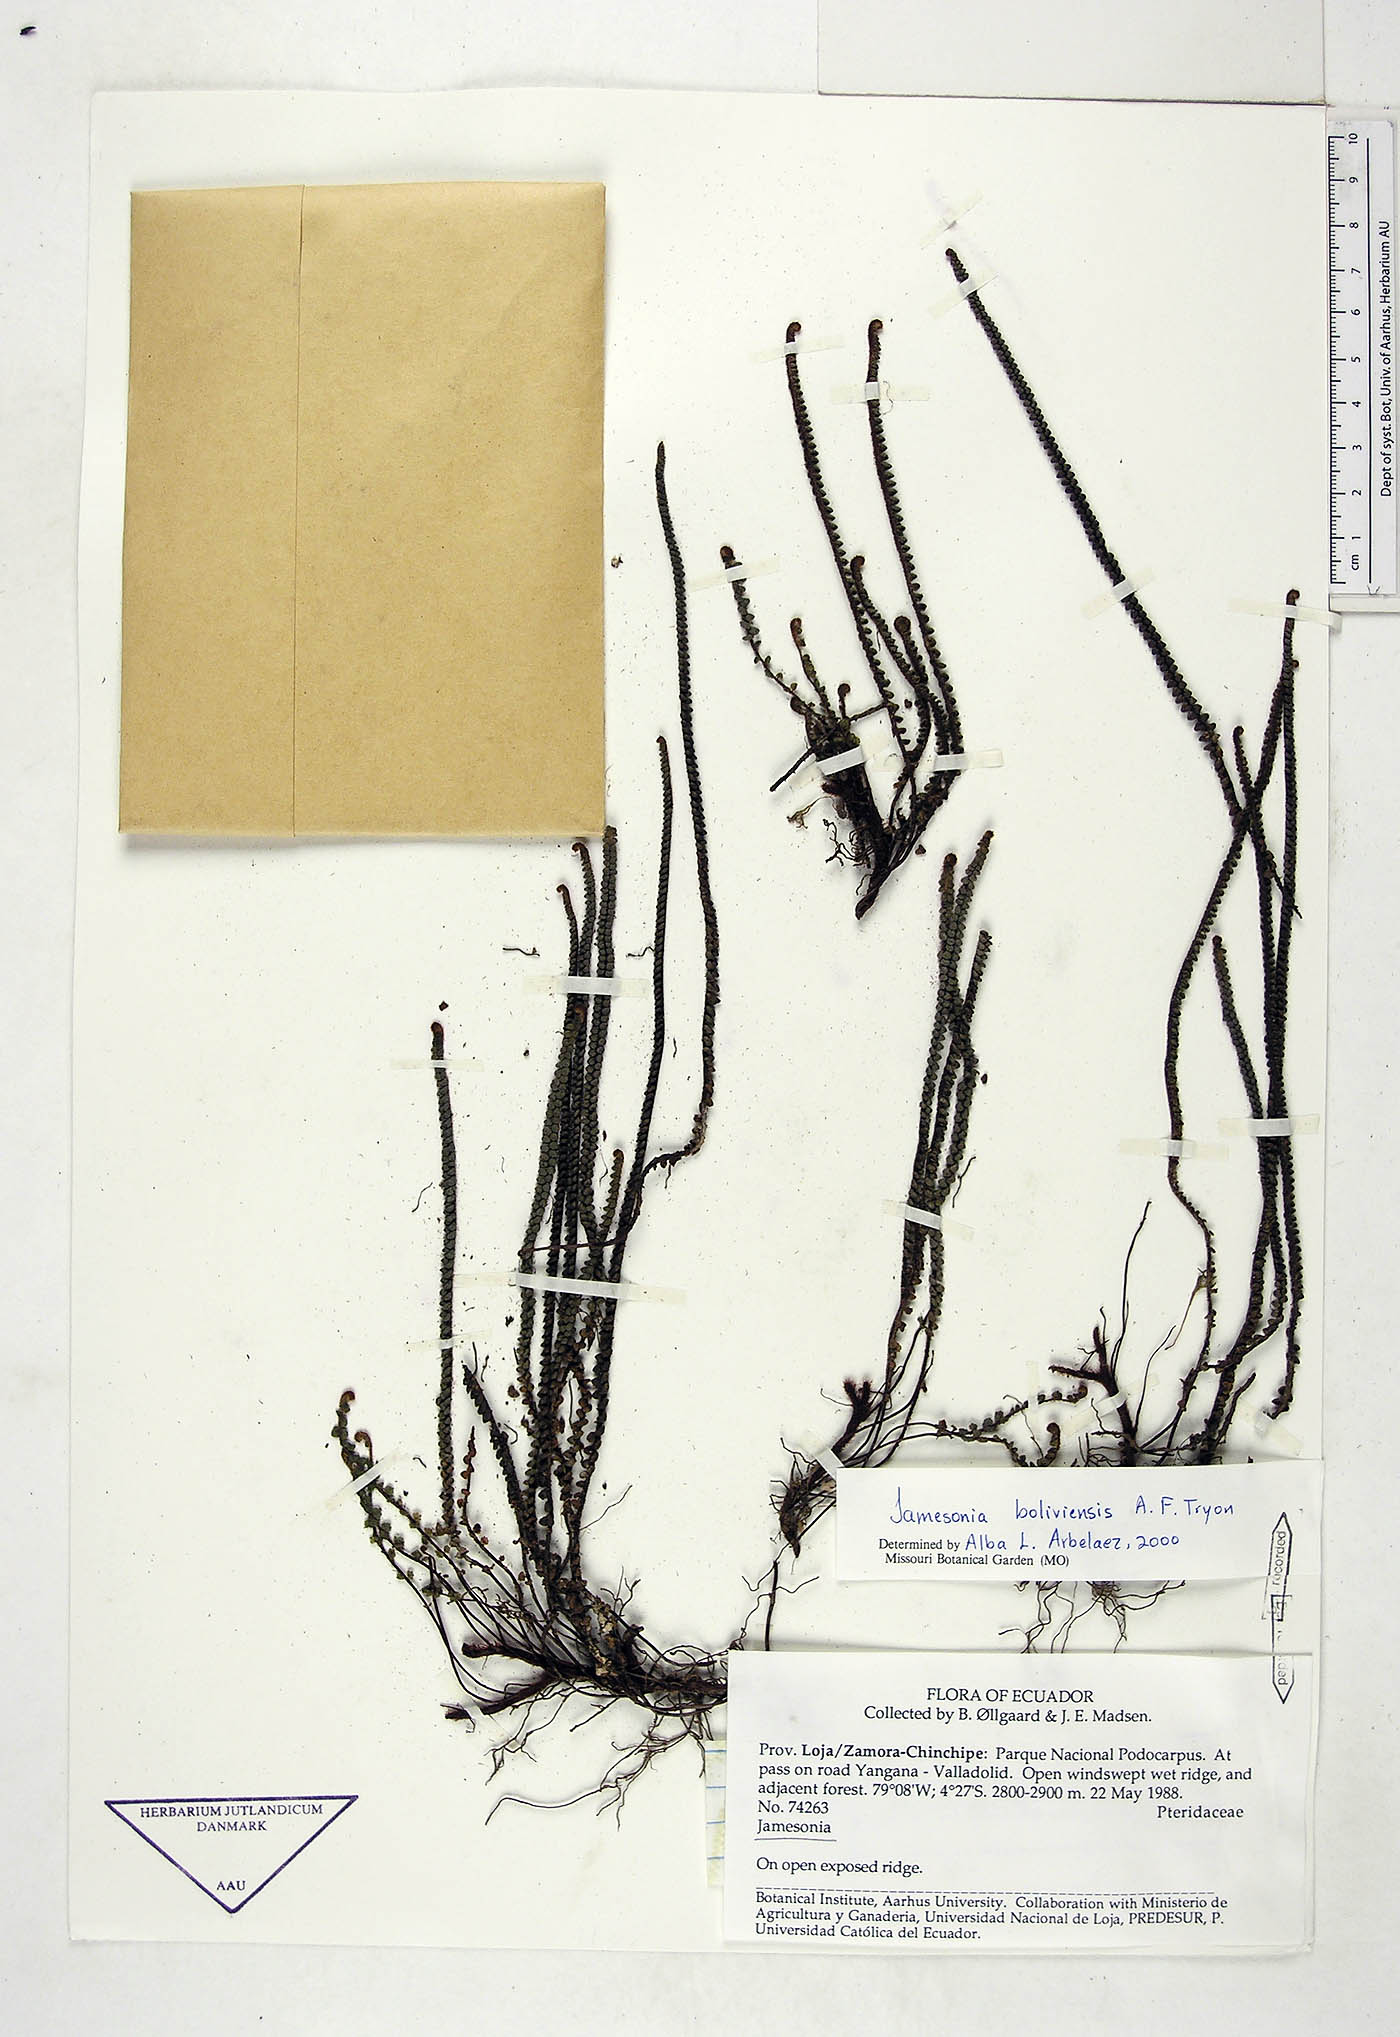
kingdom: Plantae
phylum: Tracheophyta
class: Polypodiopsida
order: Polypodiales
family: Pteridaceae
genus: Jamesonia
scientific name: Jamesonia boliviensis
